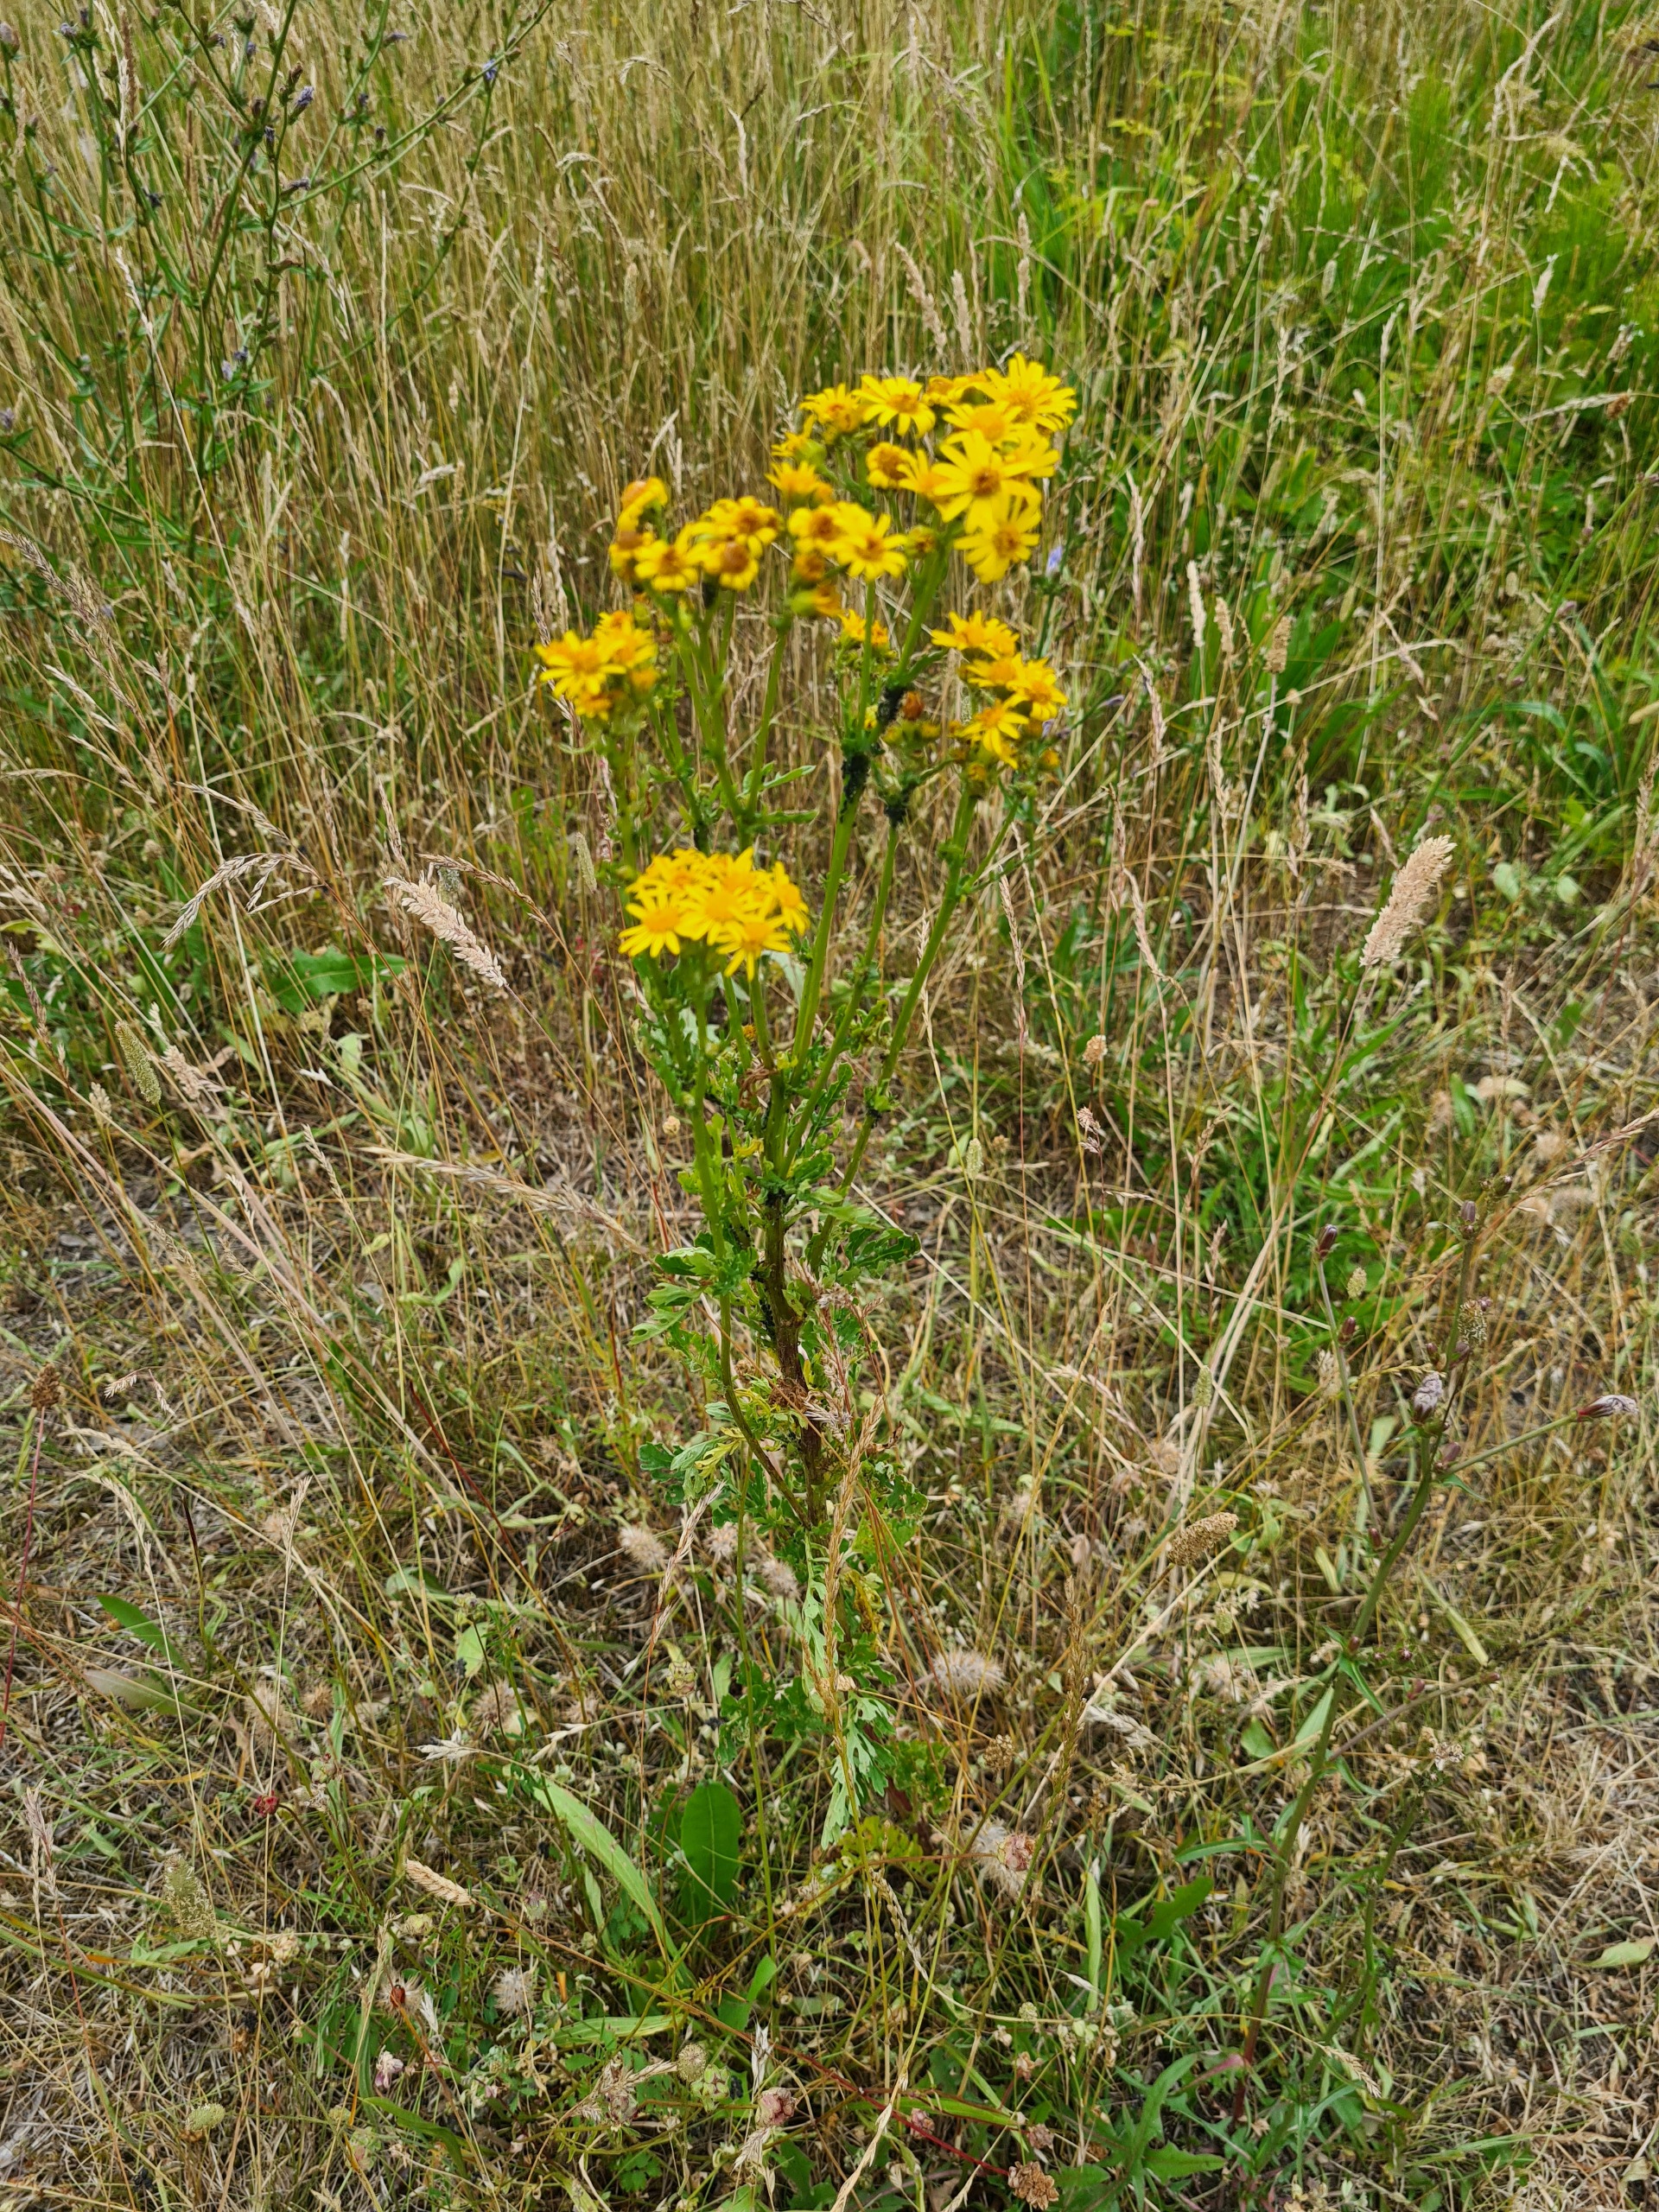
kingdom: Plantae
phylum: Tracheophyta
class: Magnoliopsida
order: Asterales
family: Asteraceae
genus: Jacobaea
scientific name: Jacobaea vulgaris
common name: Eng-brandbæger
